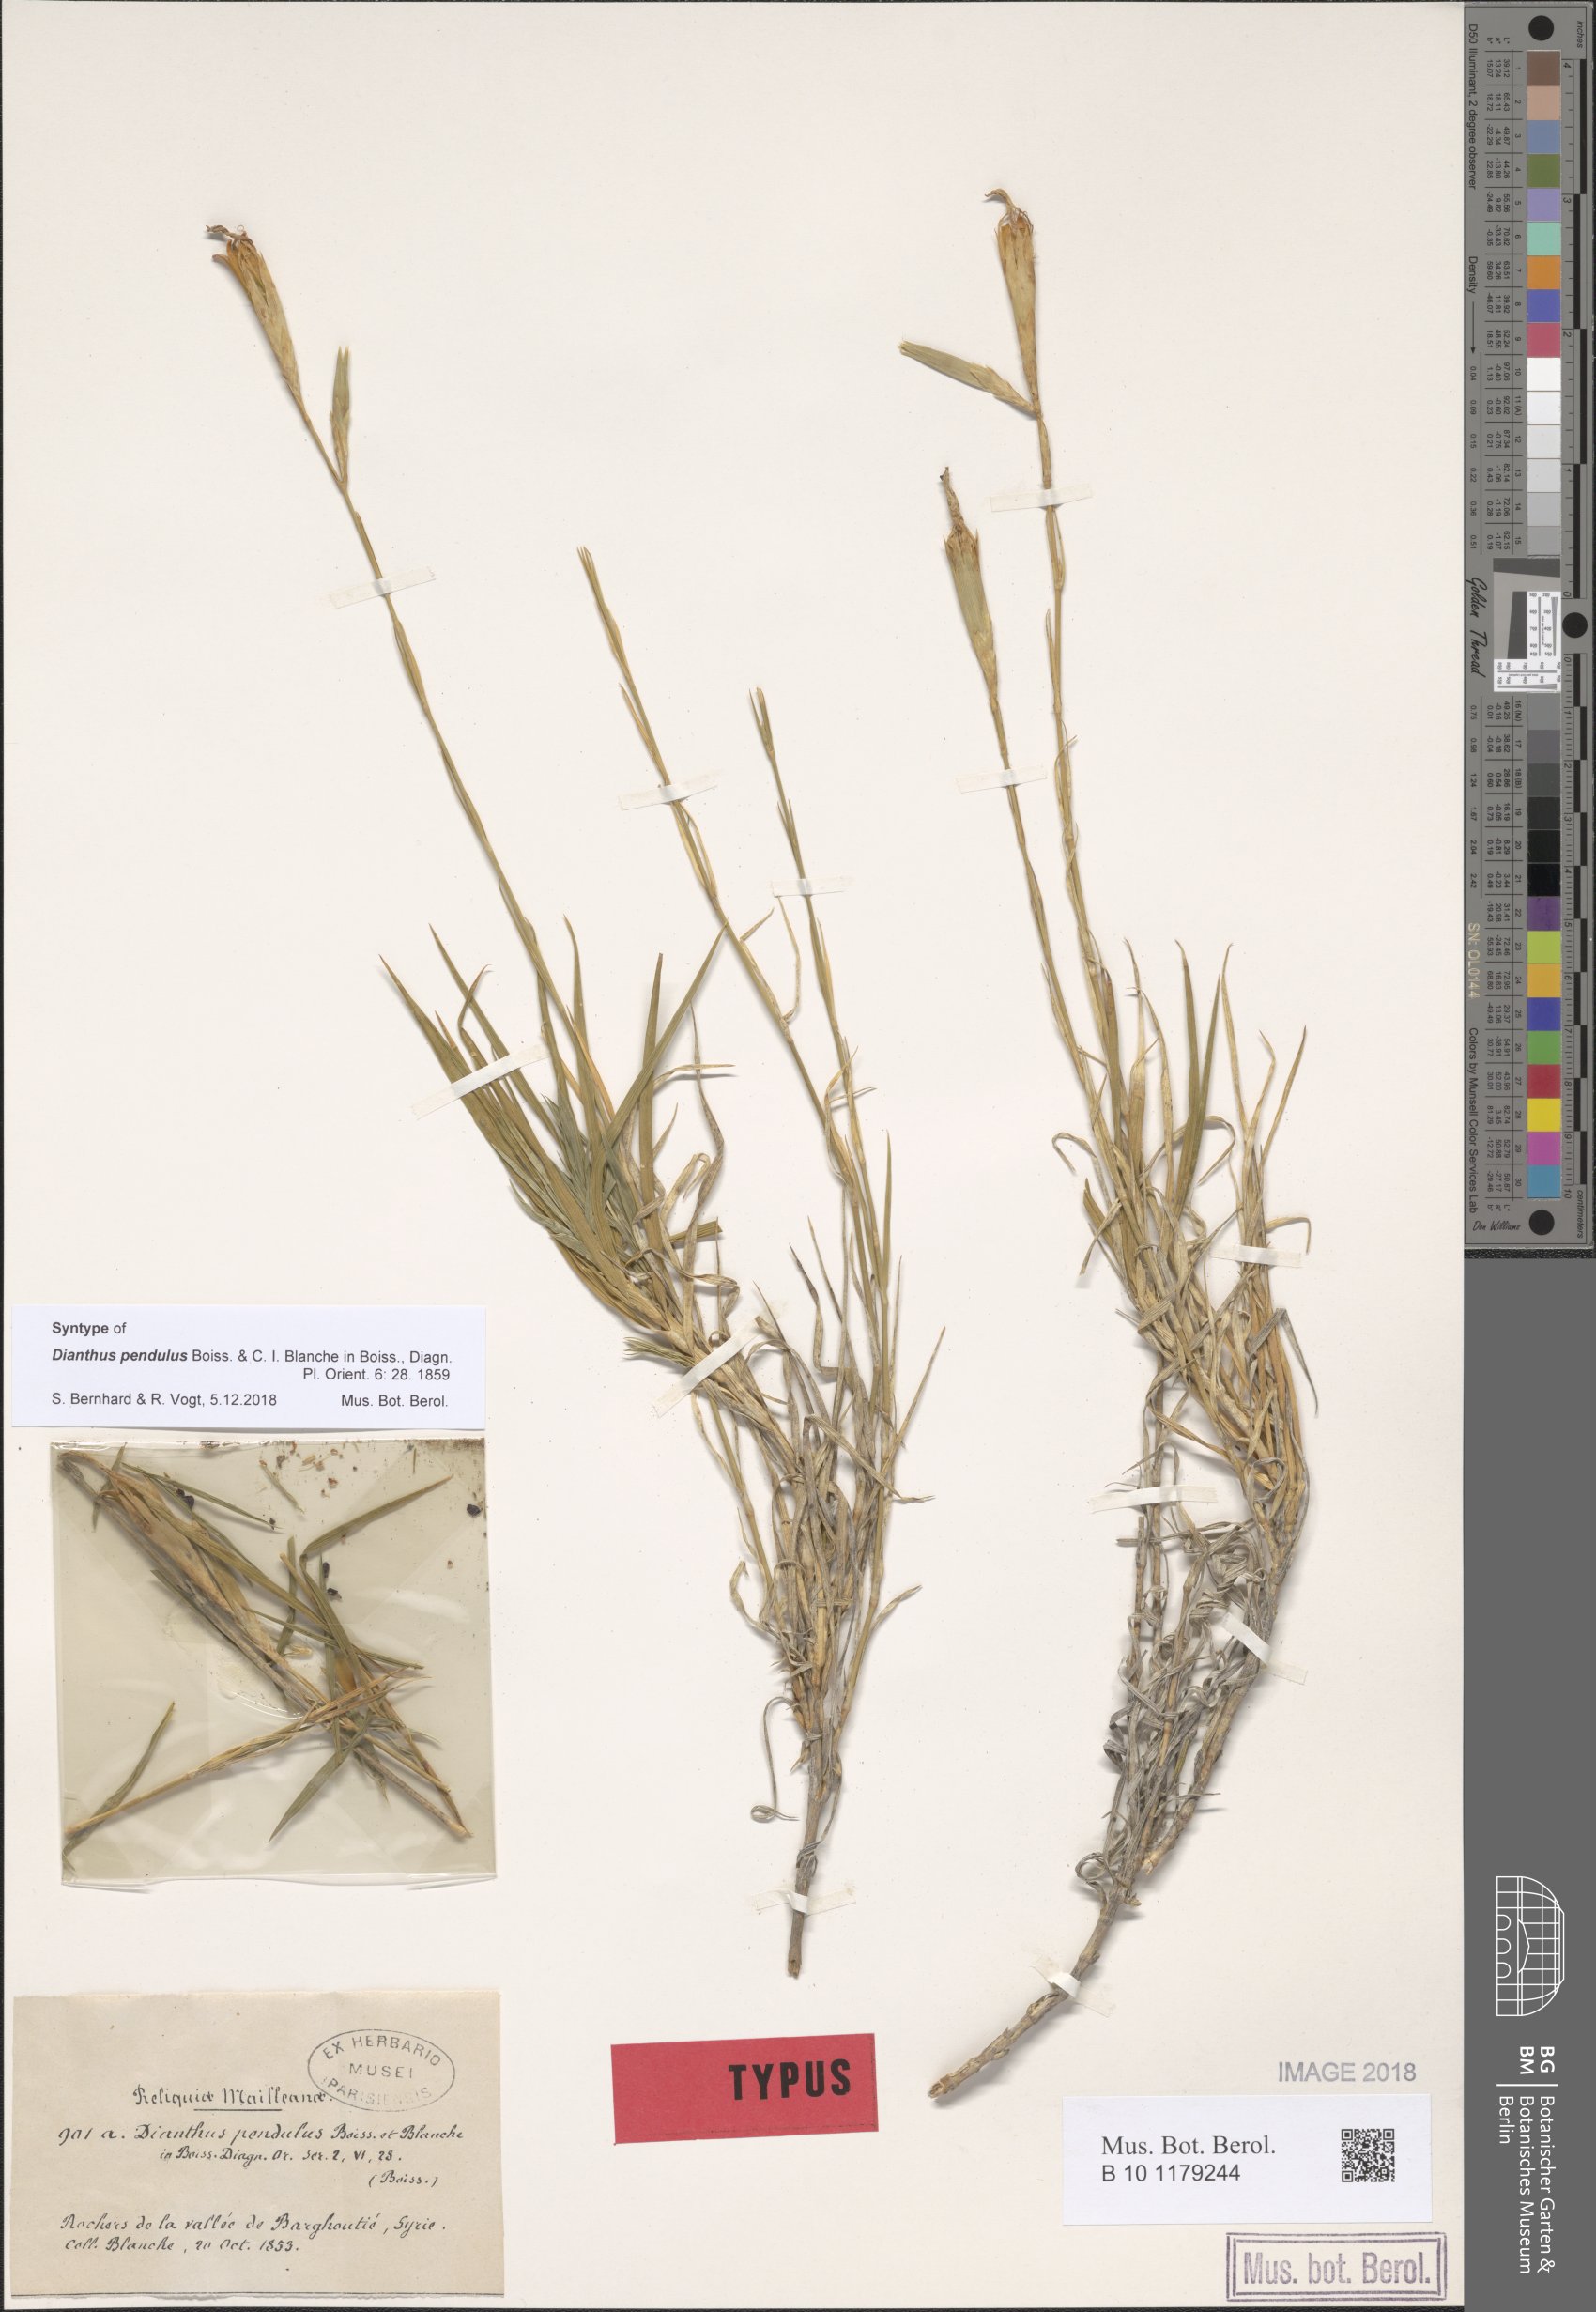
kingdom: Plantae
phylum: Tracheophyta
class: Magnoliopsida
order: Caryophyllales
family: Caryophyllaceae
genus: Dianthus
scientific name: Dianthus pendulus
